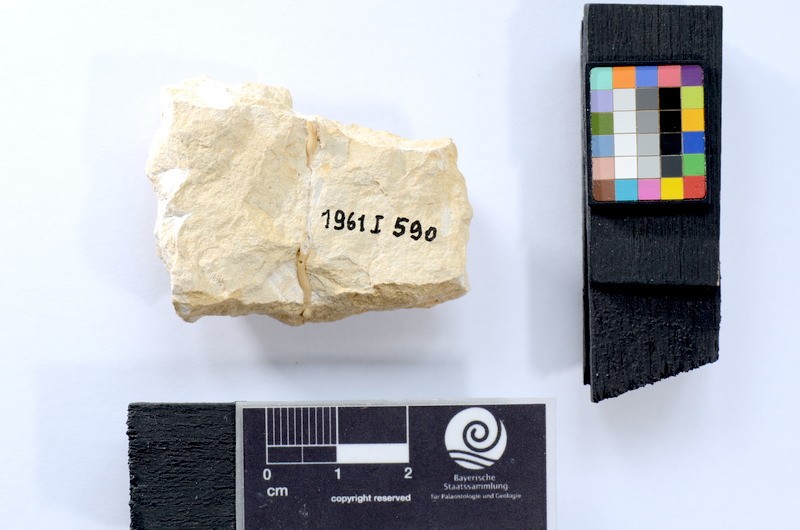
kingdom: Animalia
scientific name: Animalia
